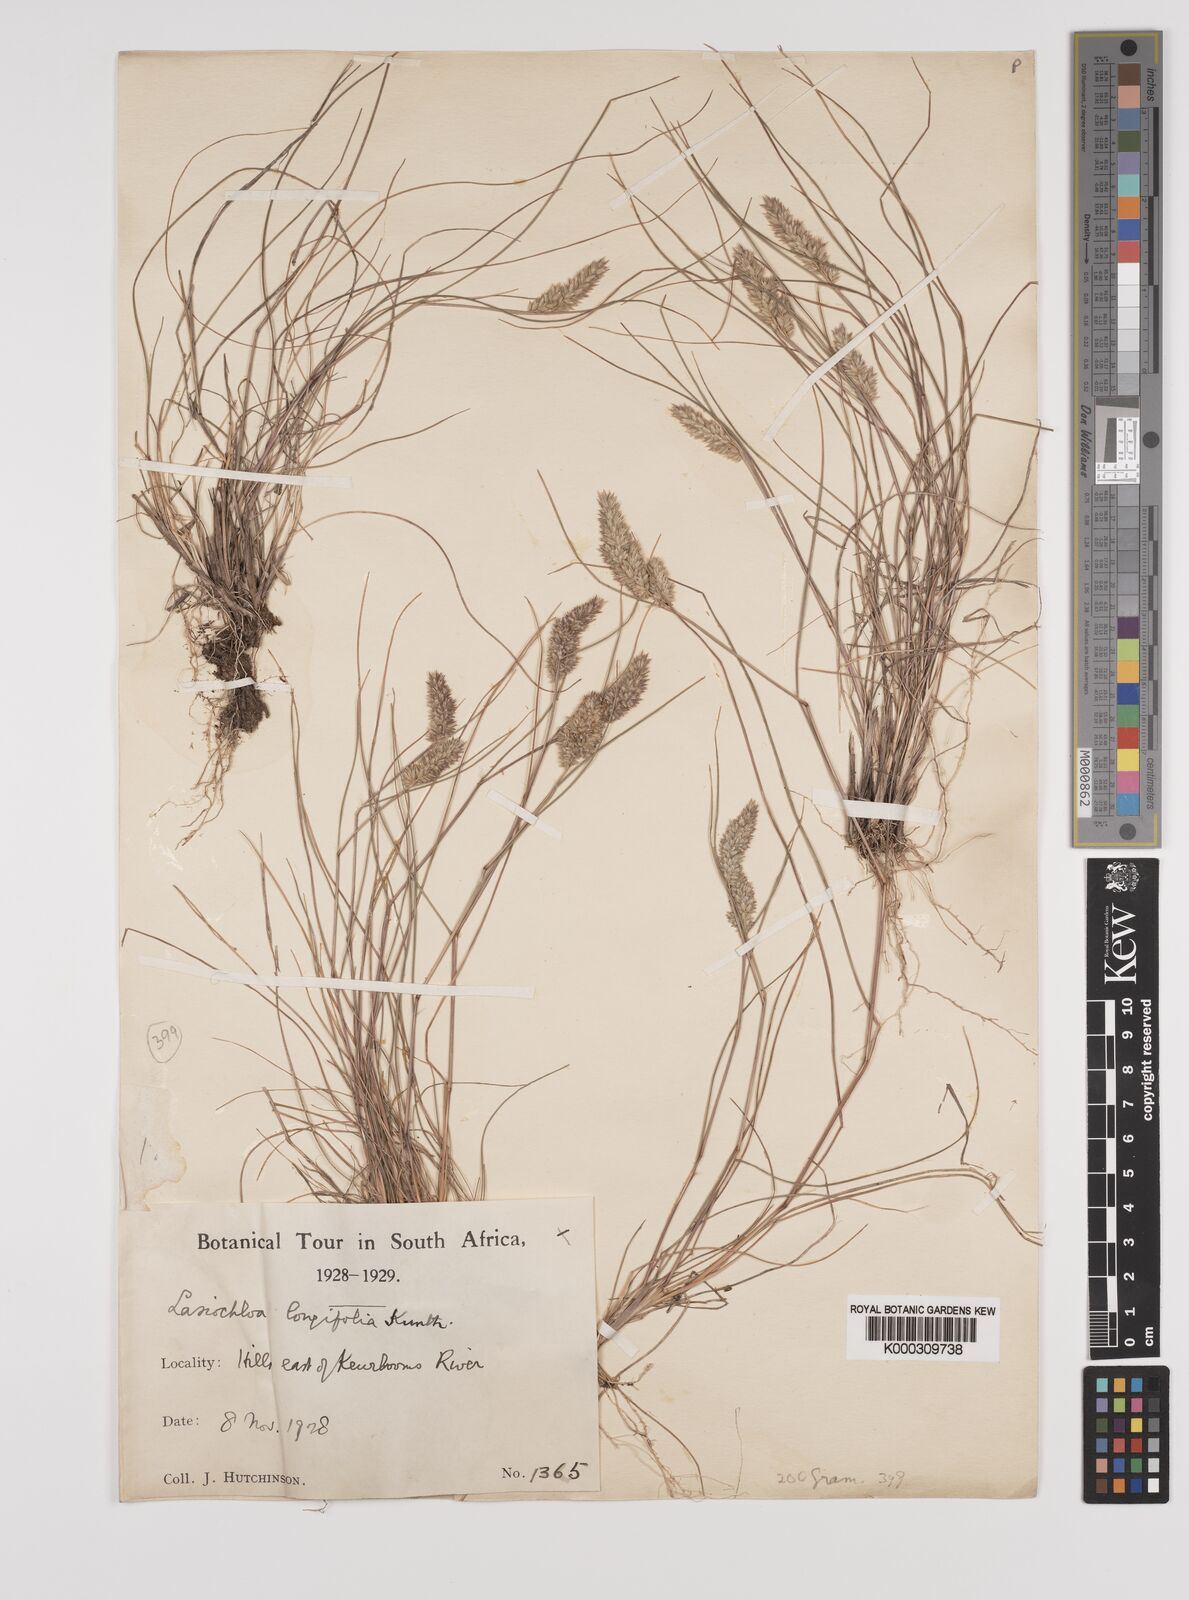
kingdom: Plantae
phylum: Tracheophyta
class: Liliopsida
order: Poales
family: Poaceae
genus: Tribolium
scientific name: Tribolium hispidum
